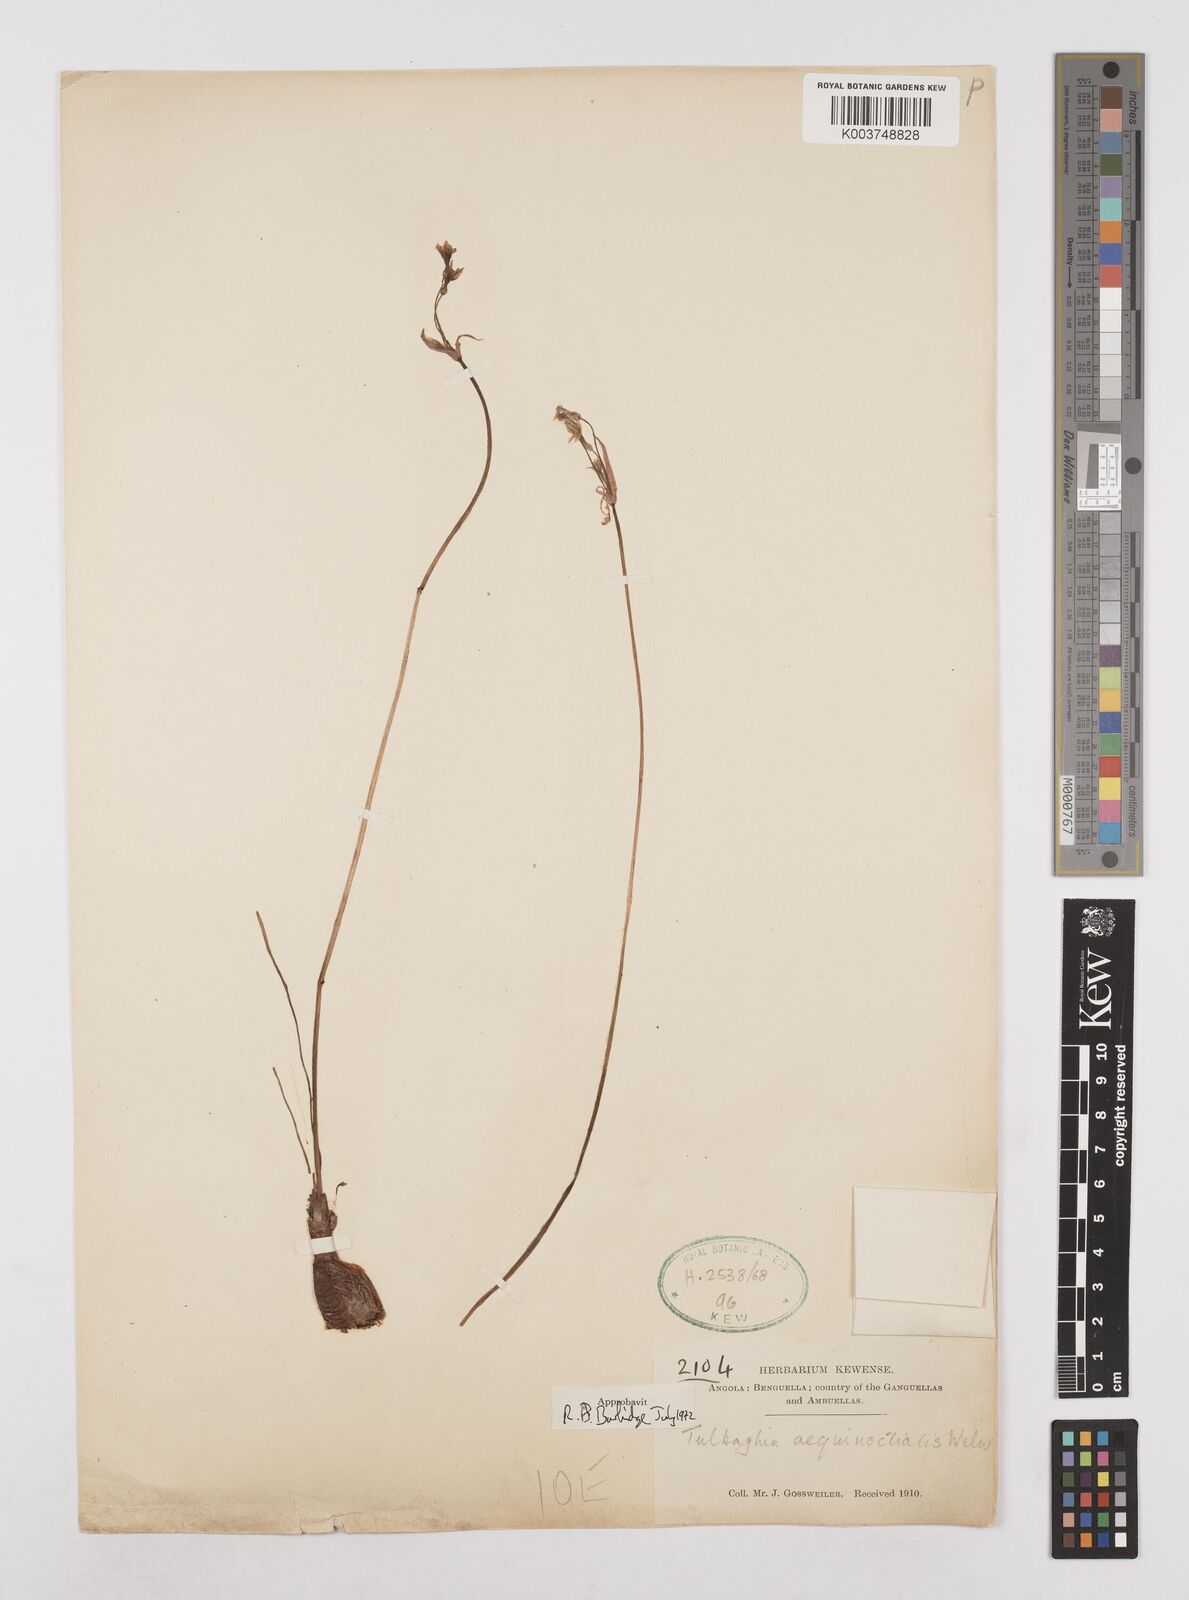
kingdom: Plantae
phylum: Tracheophyta
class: Liliopsida
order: Asparagales
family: Amaryllidaceae
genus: Tulbaghia
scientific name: Tulbaghia aequinoctialis
